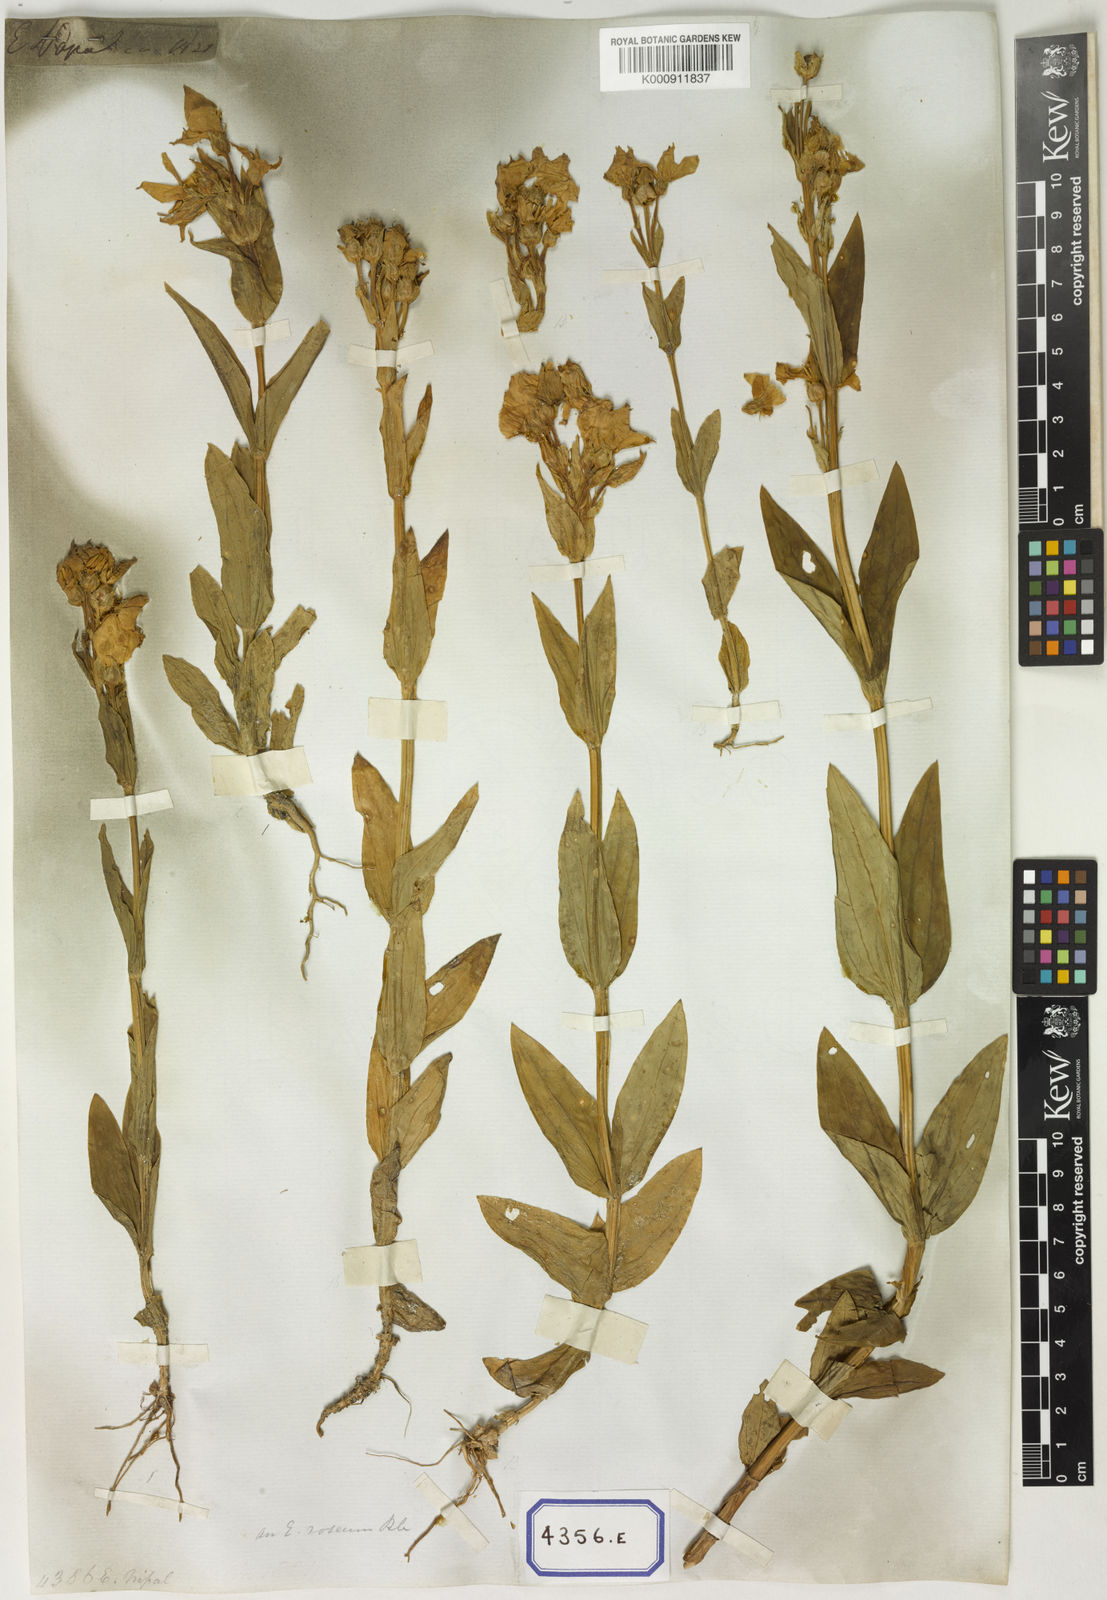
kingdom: Plantae
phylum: Tracheophyta
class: Magnoliopsida
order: Gentianales
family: Gentianaceae
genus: Exacum
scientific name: Exacum tetragonum
